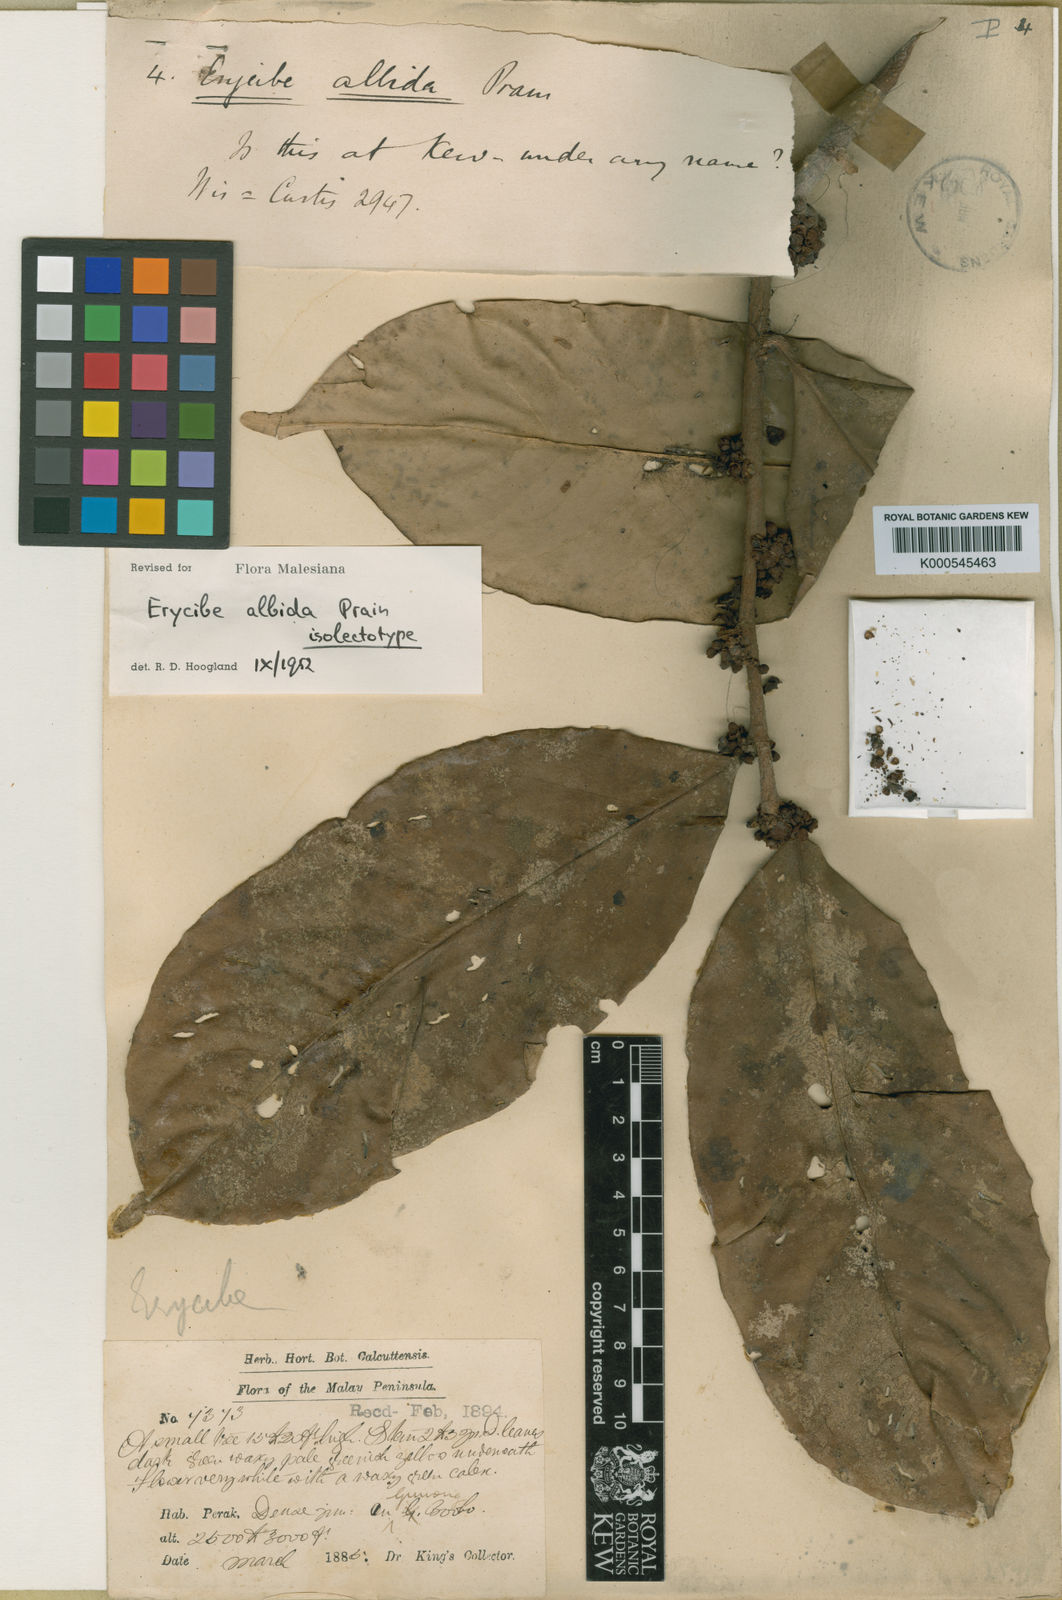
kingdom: Plantae
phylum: Tracheophyta
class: Magnoliopsida
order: Solanales
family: Convolvulaceae
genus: Erycibe
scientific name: Erycibe albida
